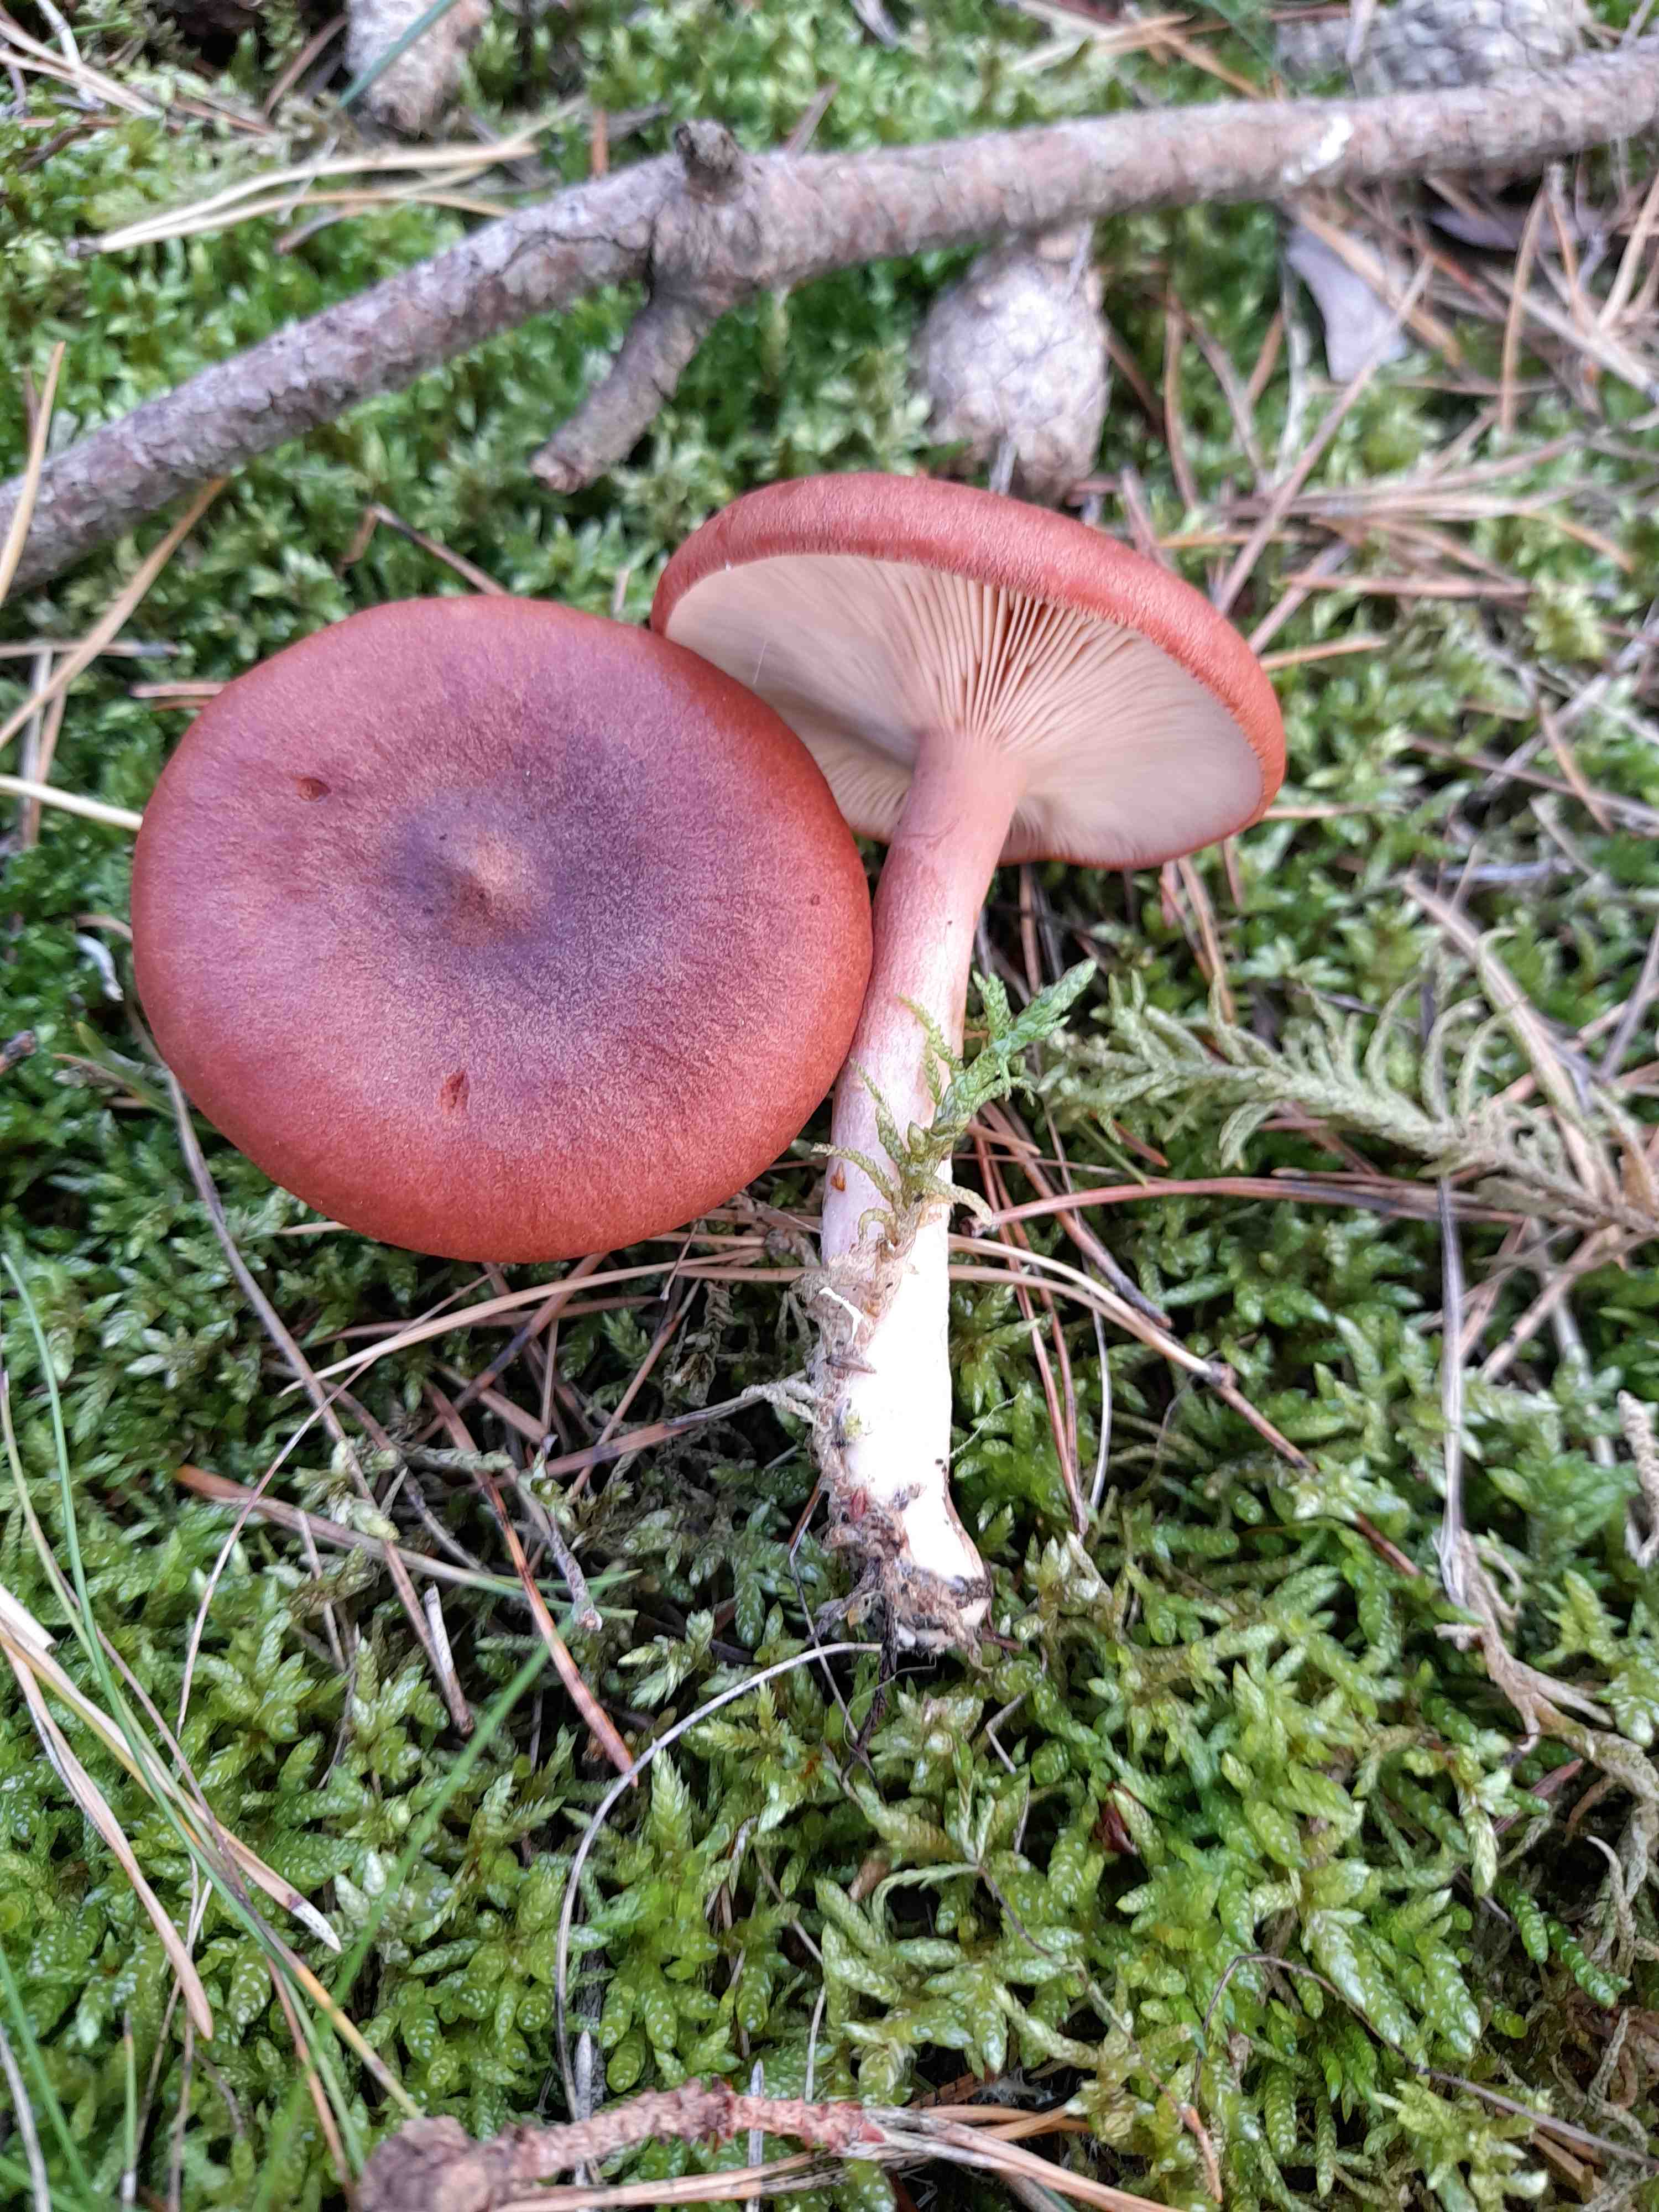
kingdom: Fungi
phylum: Basidiomycota
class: Agaricomycetes
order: Russulales
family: Russulaceae
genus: Lactarius
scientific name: Lactarius rufus
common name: rødbrun mælkehat
